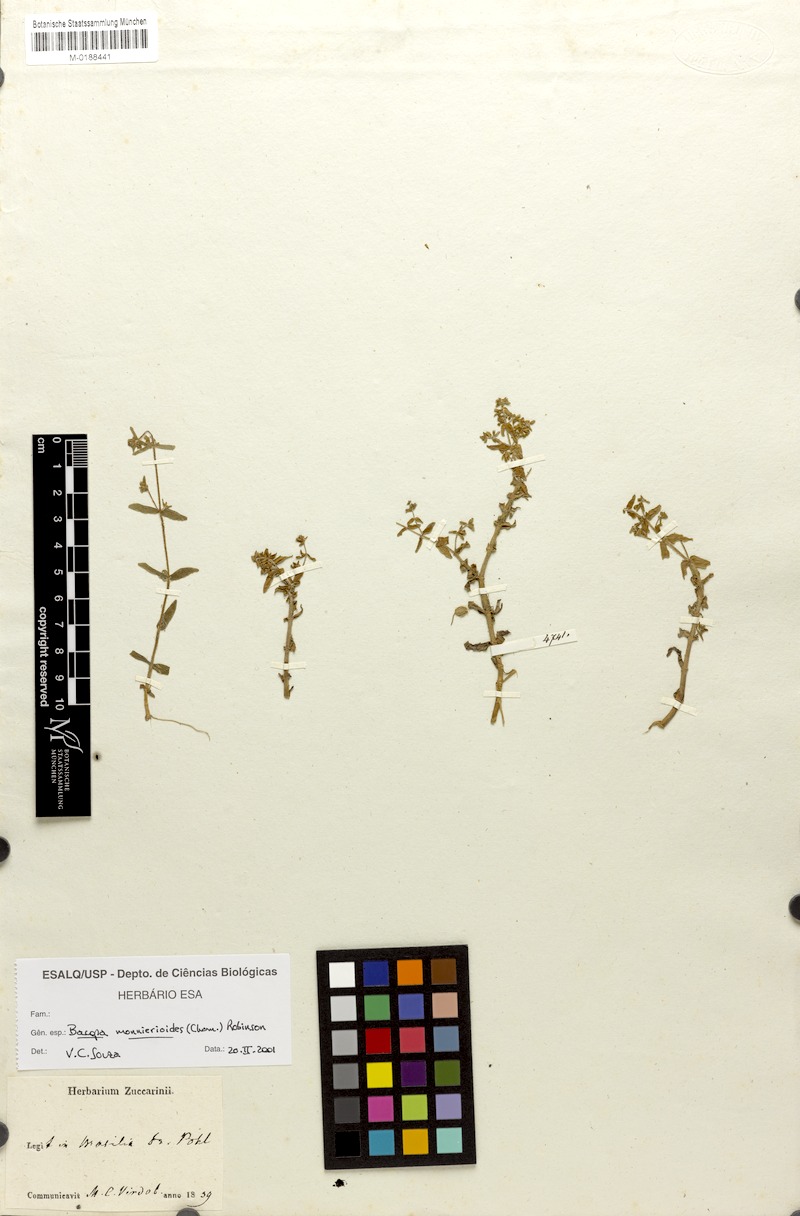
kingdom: Plantae
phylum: Tracheophyta
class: Magnoliopsida
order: Lamiales
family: Plantaginaceae
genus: Bacopa
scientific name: Bacopa monnierioides
